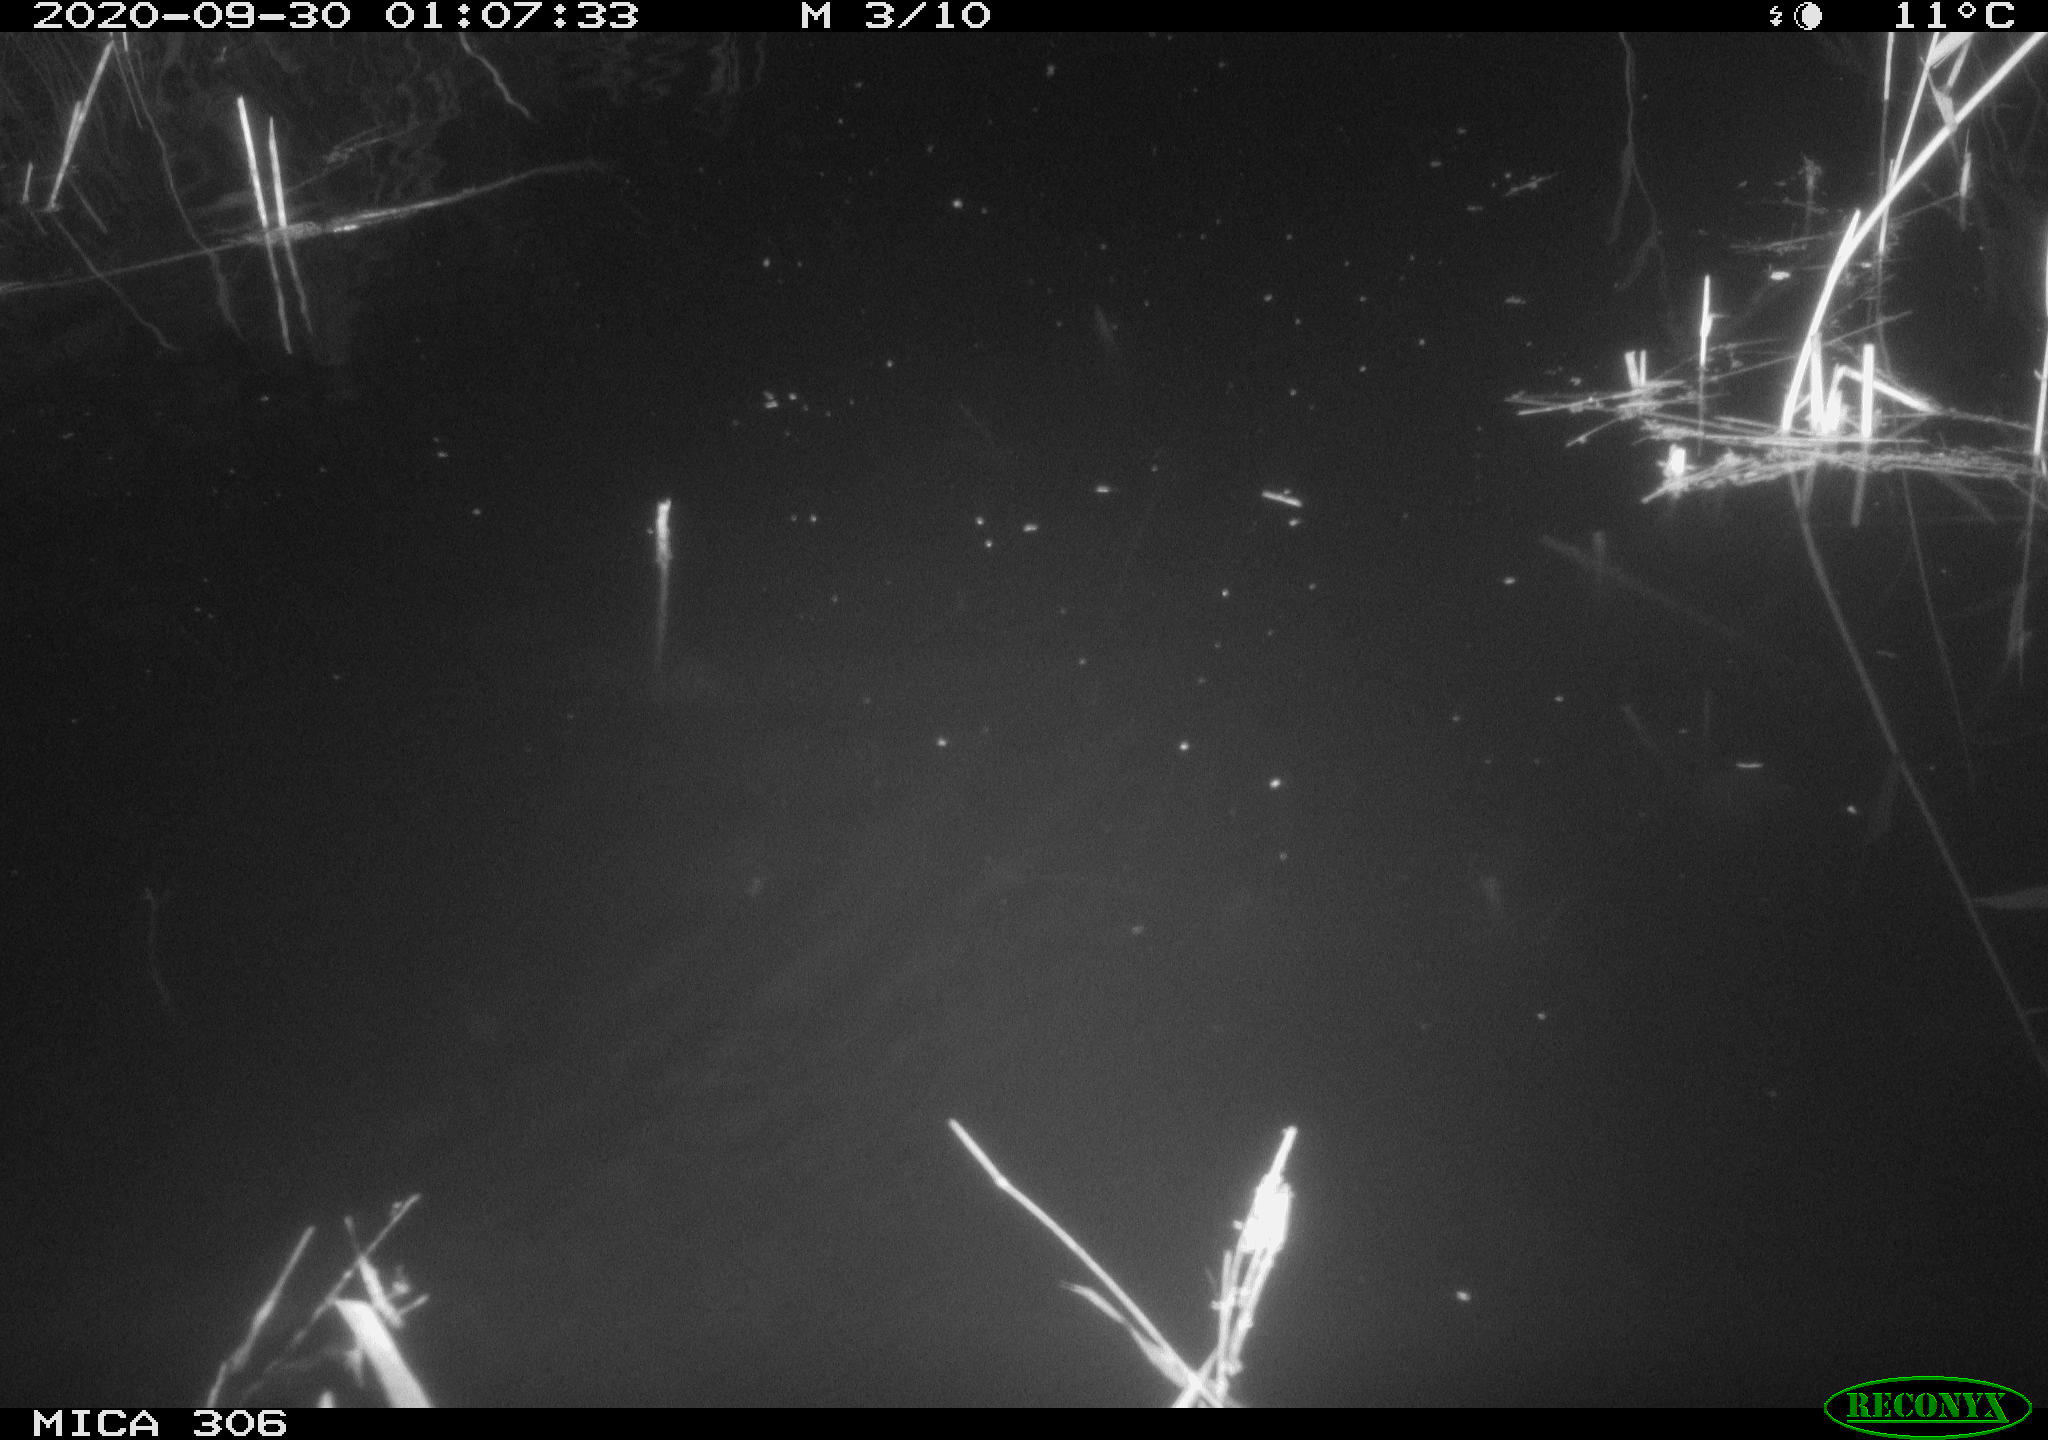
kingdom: Animalia
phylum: Chordata
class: Mammalia
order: Rodentia
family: Muridae
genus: Rattus
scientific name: Rattus norvegicus
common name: Brown rat
